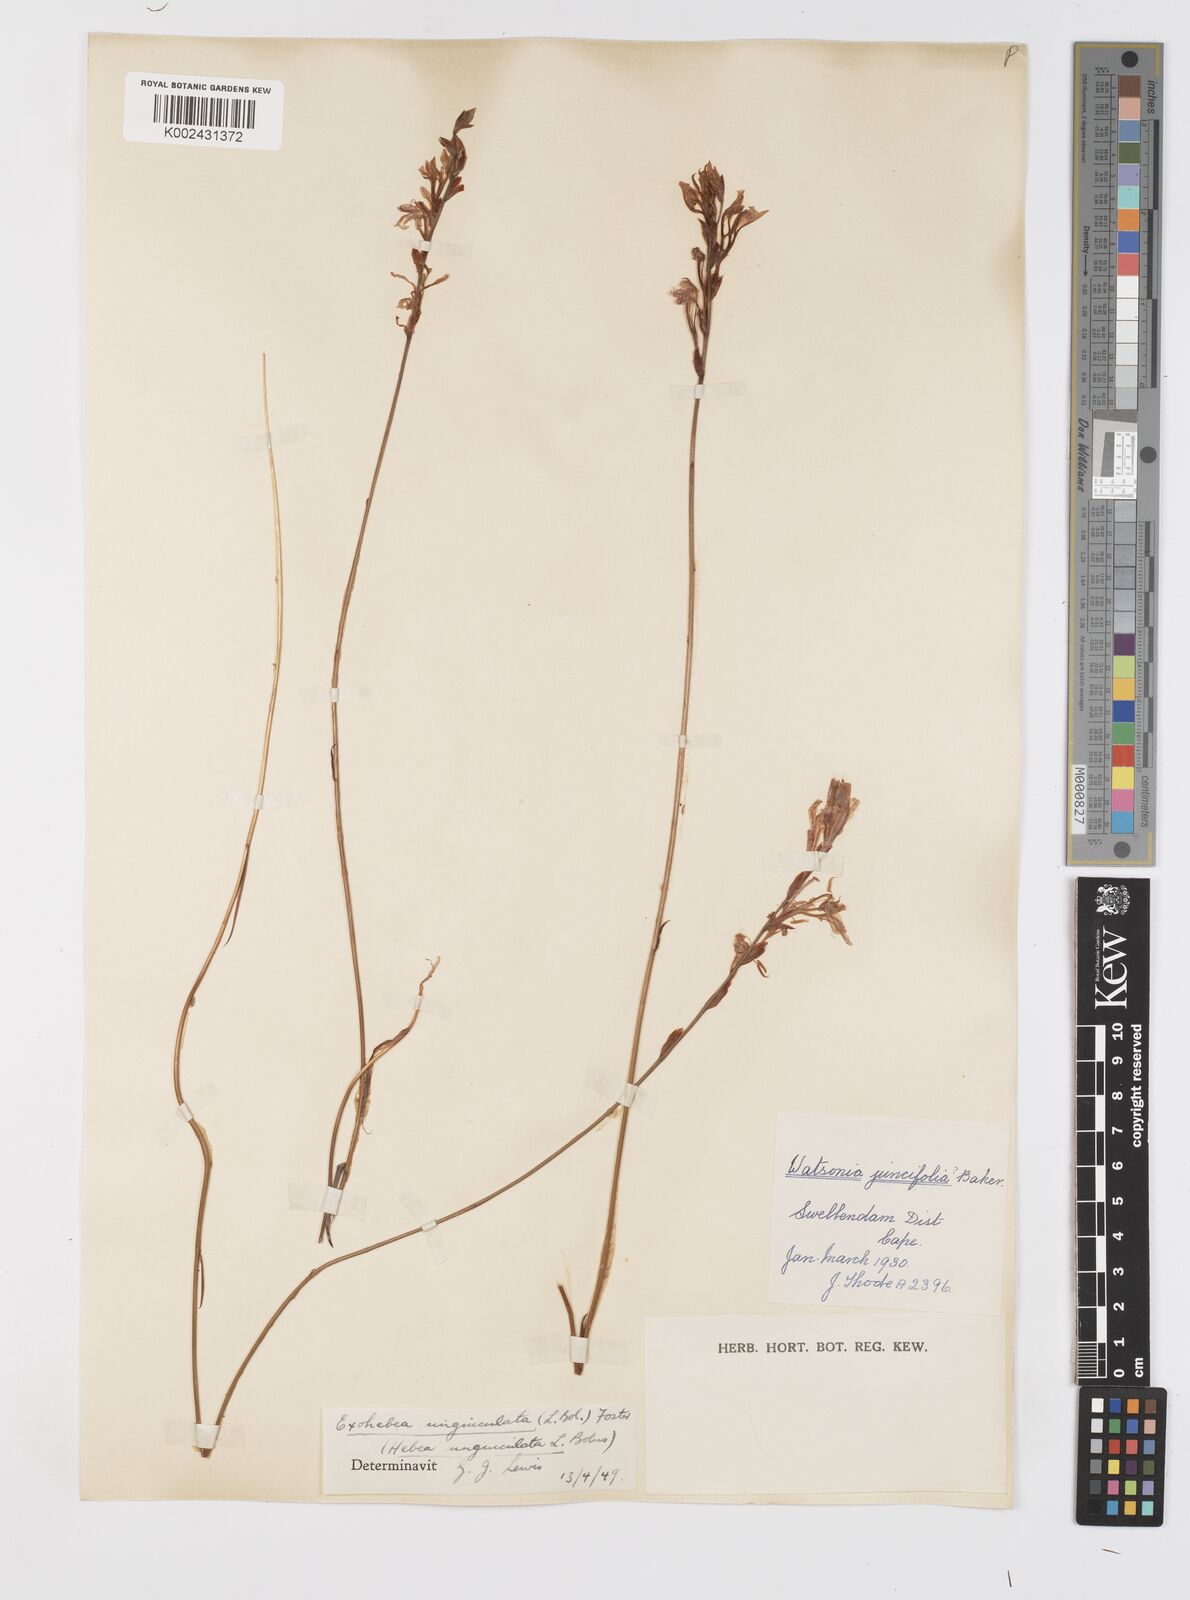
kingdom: Plantae
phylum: Tracheophyta
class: Liliopsida
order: Asparagales
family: Iridaceae
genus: Tritoniopsis
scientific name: Tritoniopsis ramosa
